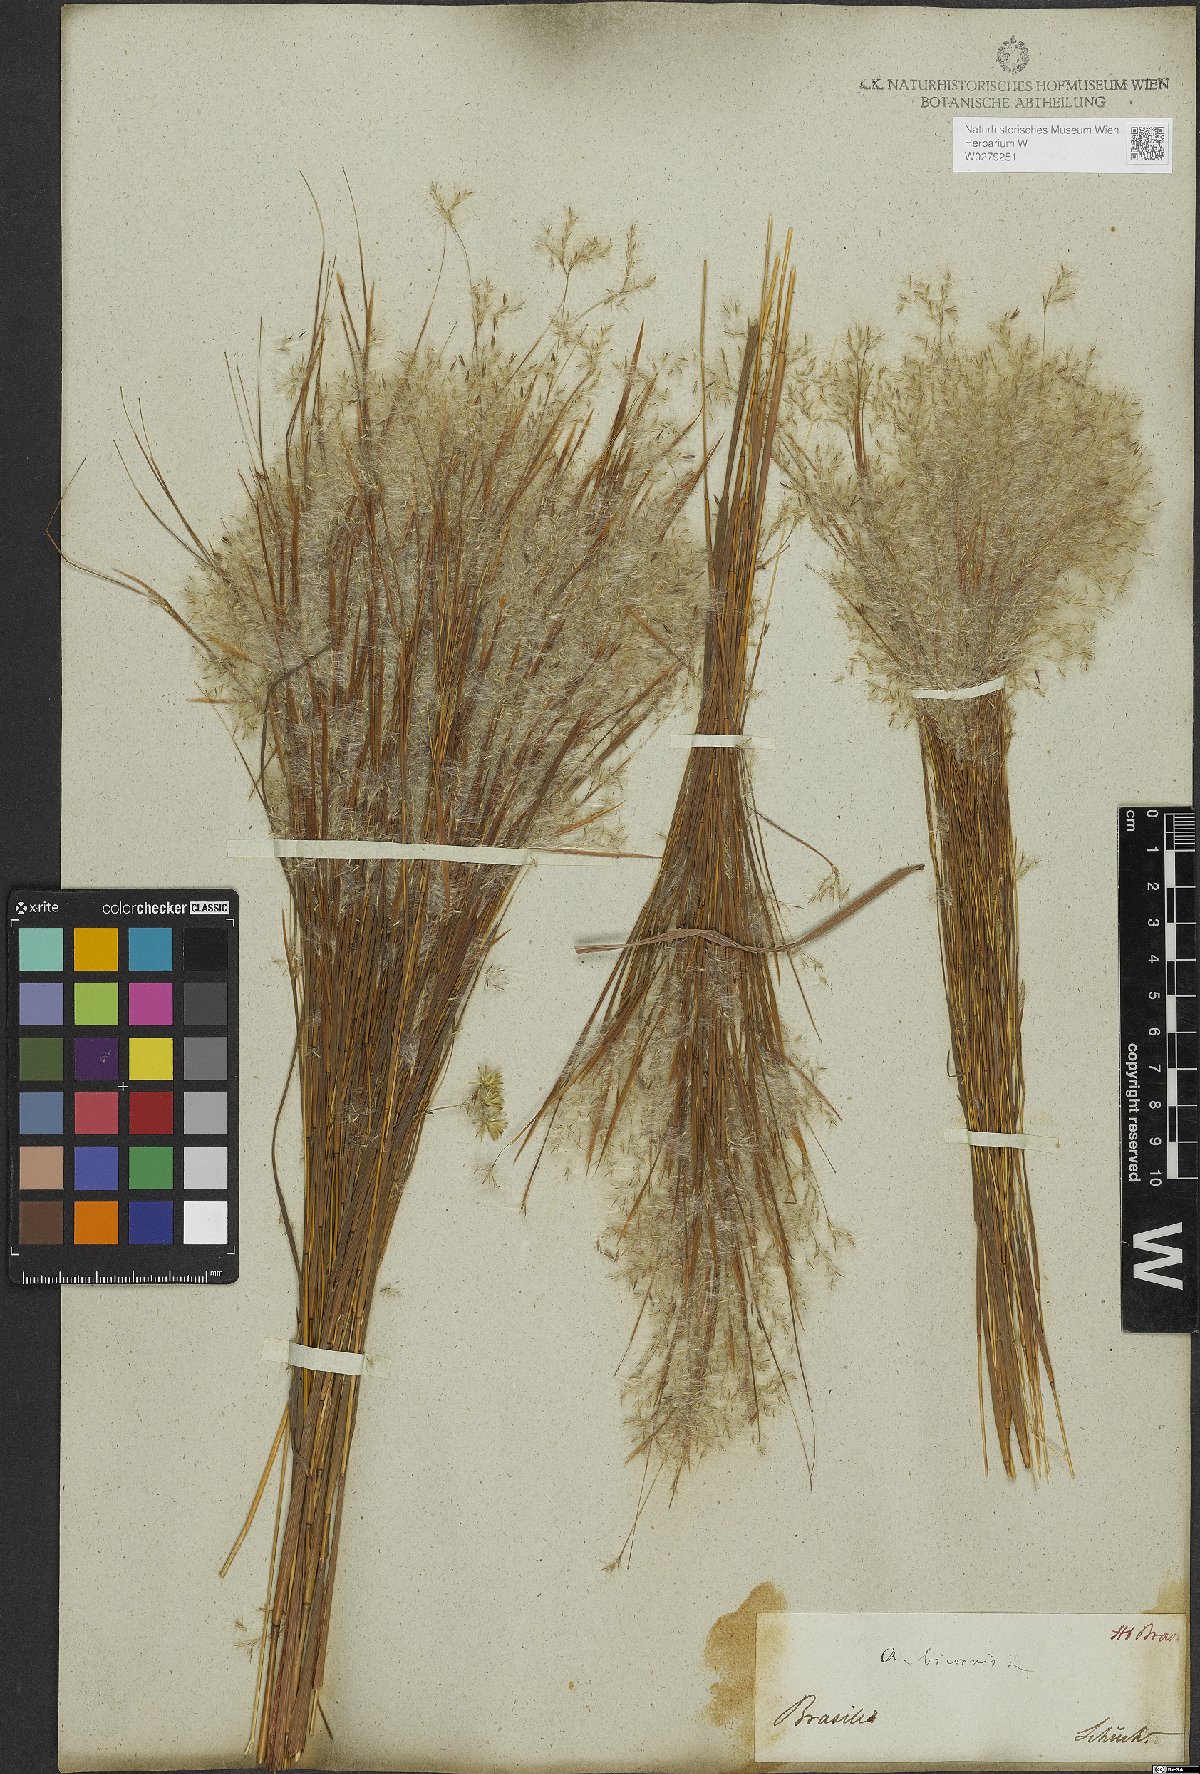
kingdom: Plantae
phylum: Tracheophyta
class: Liliopsida
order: Poales
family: Poaceae
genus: Andropogon
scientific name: Andropogon bicornis
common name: West indian foxtail grass
